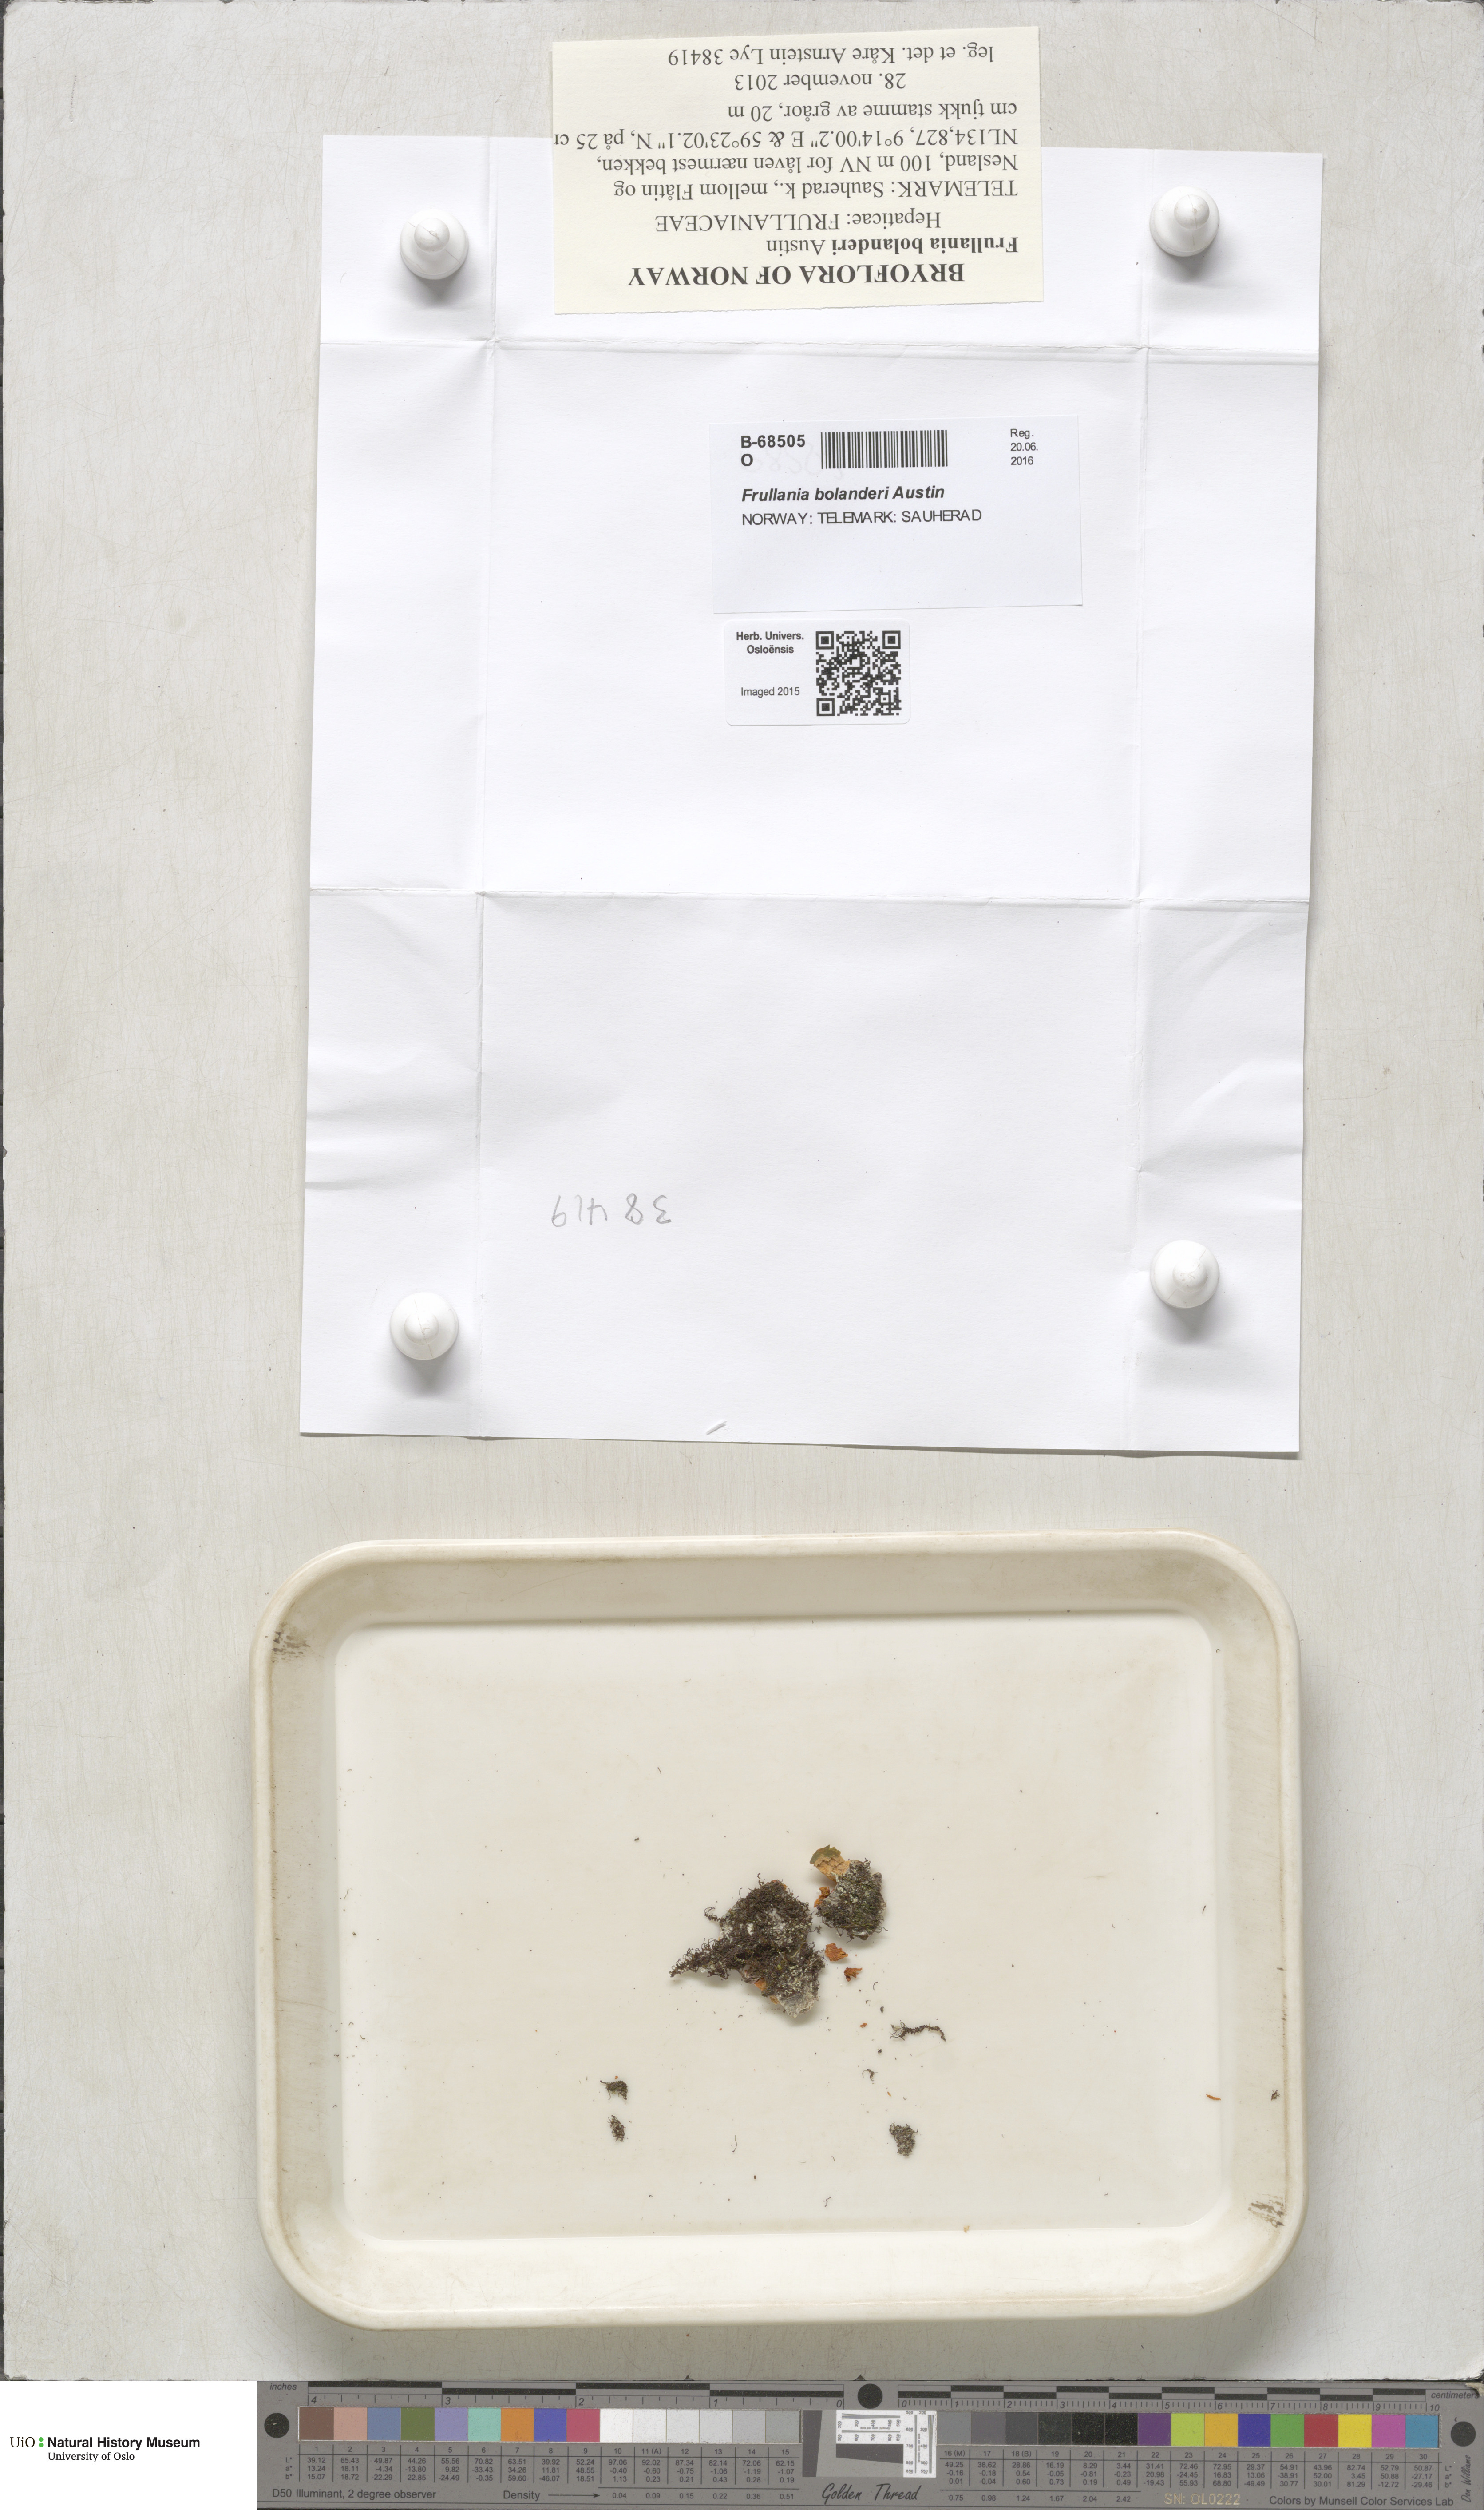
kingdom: Plantae
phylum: Marchantiophyta
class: Jungermanniopsida
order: Porellales
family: Frullaniaceae
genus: Frullania
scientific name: Frullania bolanderi
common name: Bolander s scalewort
